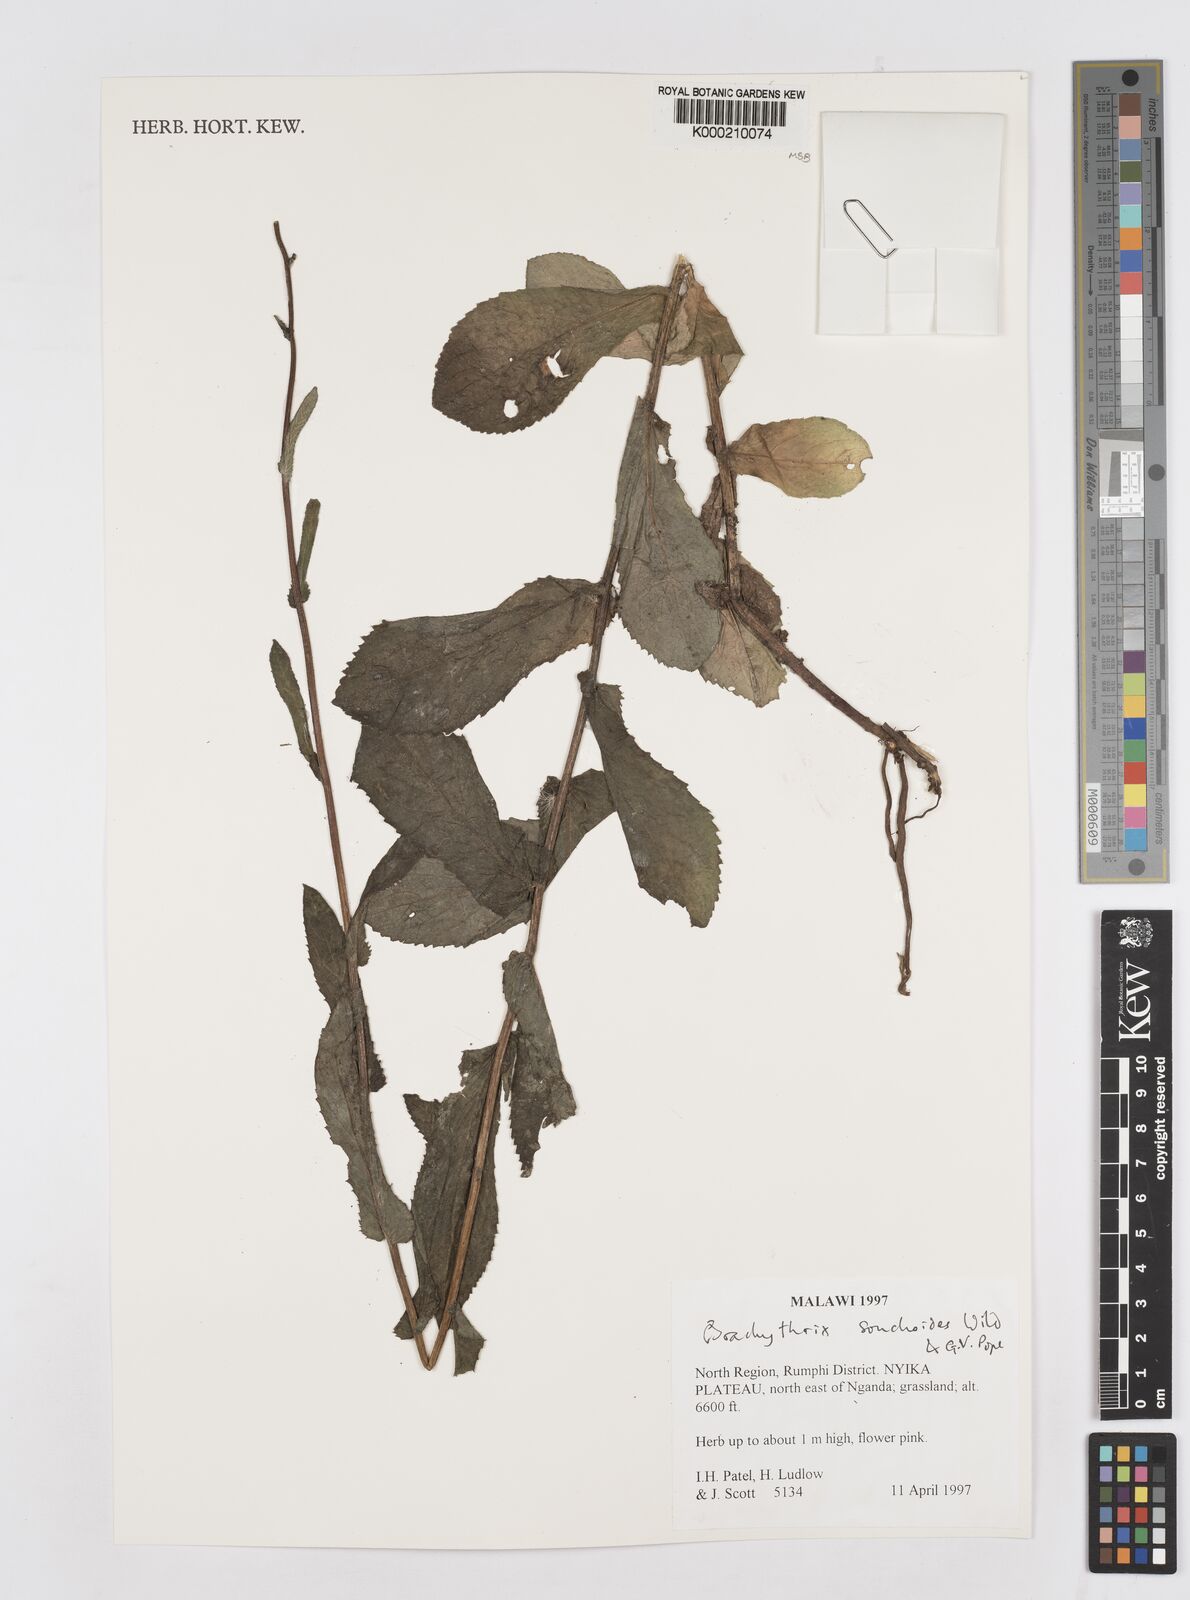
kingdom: Plantae
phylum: Tracheophyta
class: Magnoliopsida
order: Asterales
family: Asteraceae
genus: Brachythrix
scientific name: Brachythrix sonchoides
